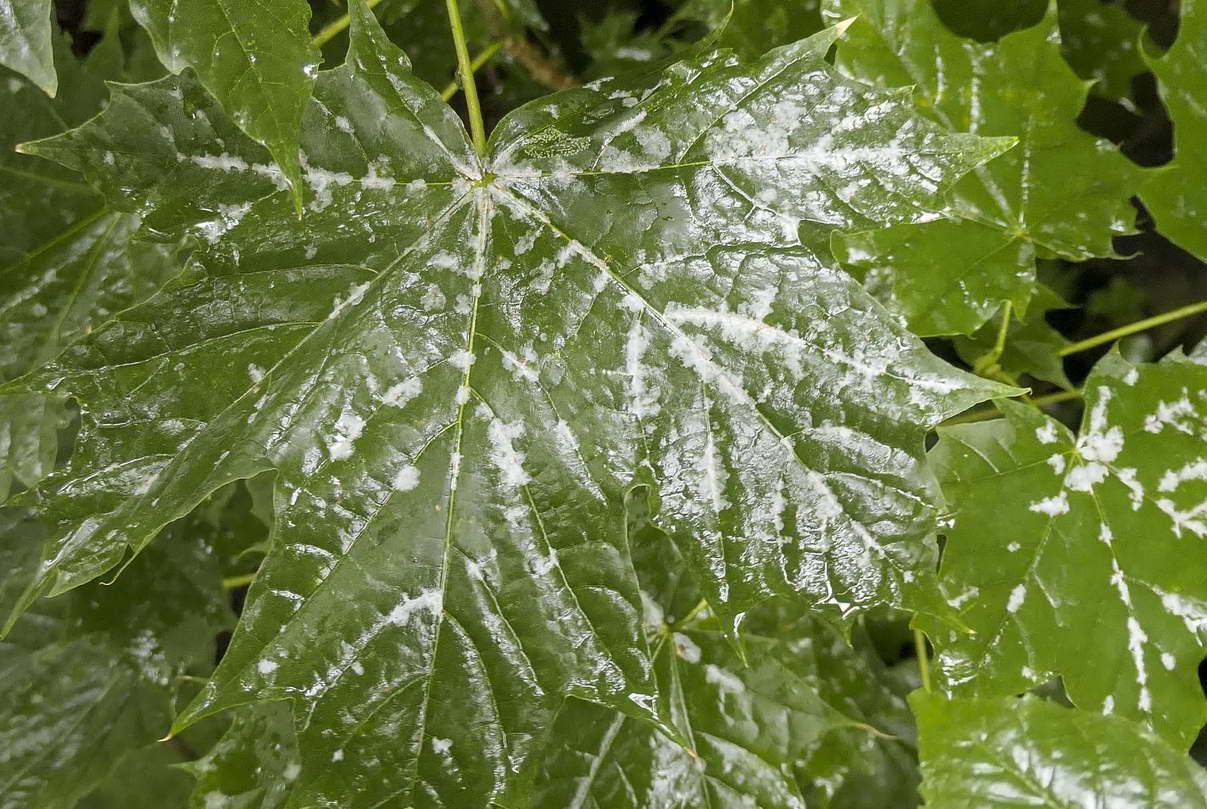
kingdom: Fungi
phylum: Ascomycota
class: Leotiomycetes
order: Helotiales
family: Erysiphaceae
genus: Sawadaea
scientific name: Sawadaea tulasnei
